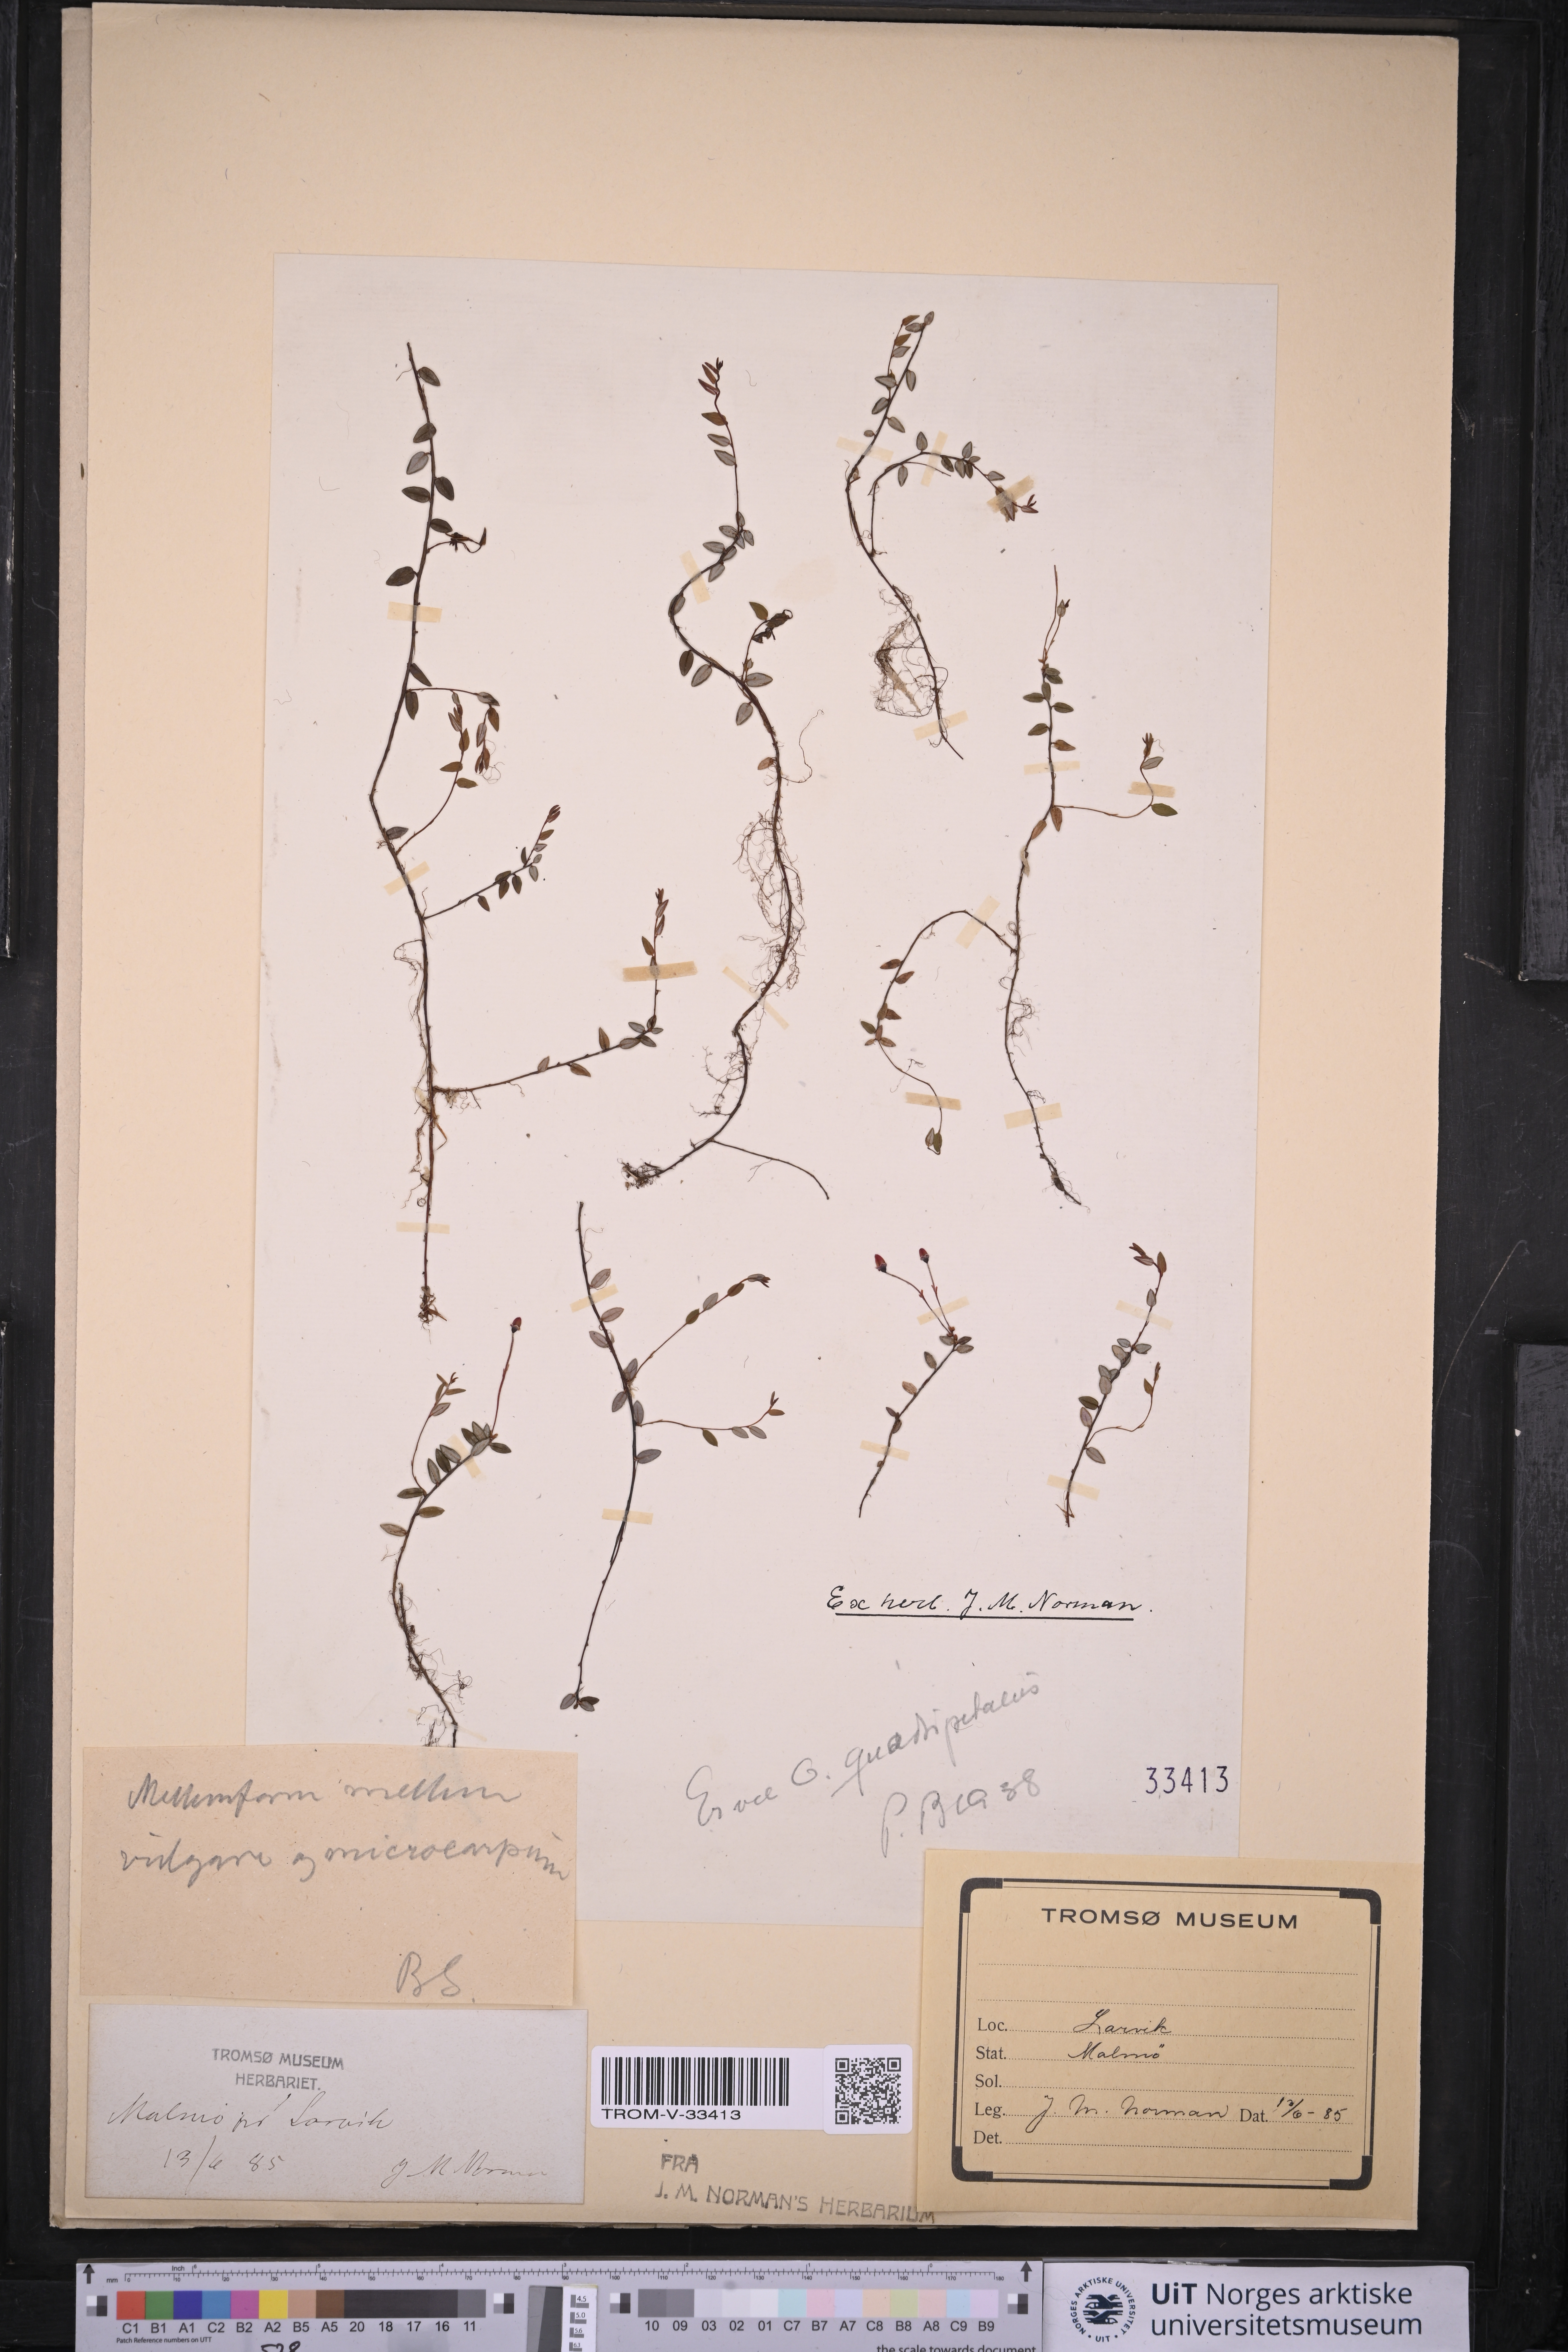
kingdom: Plantae
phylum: Tracheophyta
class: Magnoliopsida
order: Ericales
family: Ericaceae
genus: Vaccinium
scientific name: Vaccinium microcarpum
